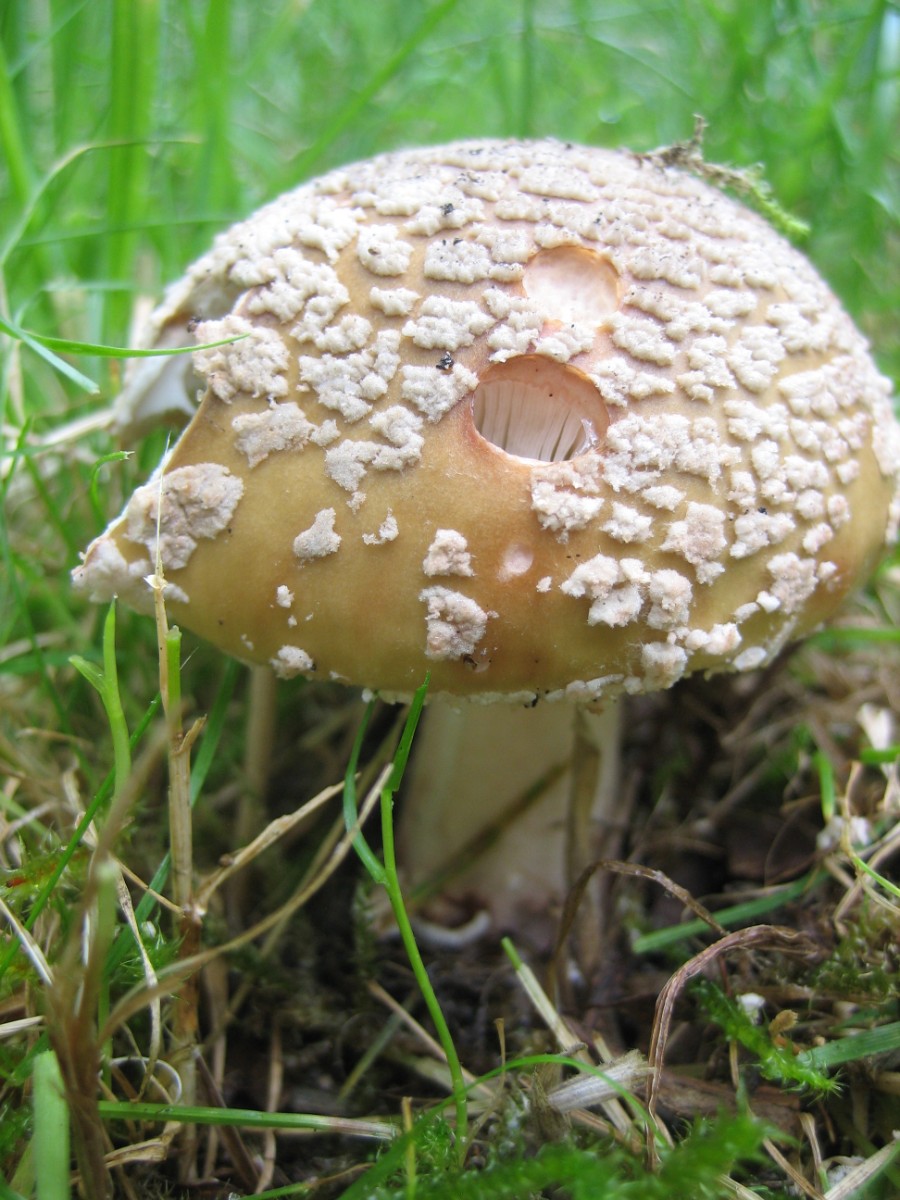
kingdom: Fungi
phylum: Basidiomycota
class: Agaricomycetes
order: Agaricales
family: Amanitaceae
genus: Amanita
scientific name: Amanita rubescens
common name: rødmende fluesvamp
